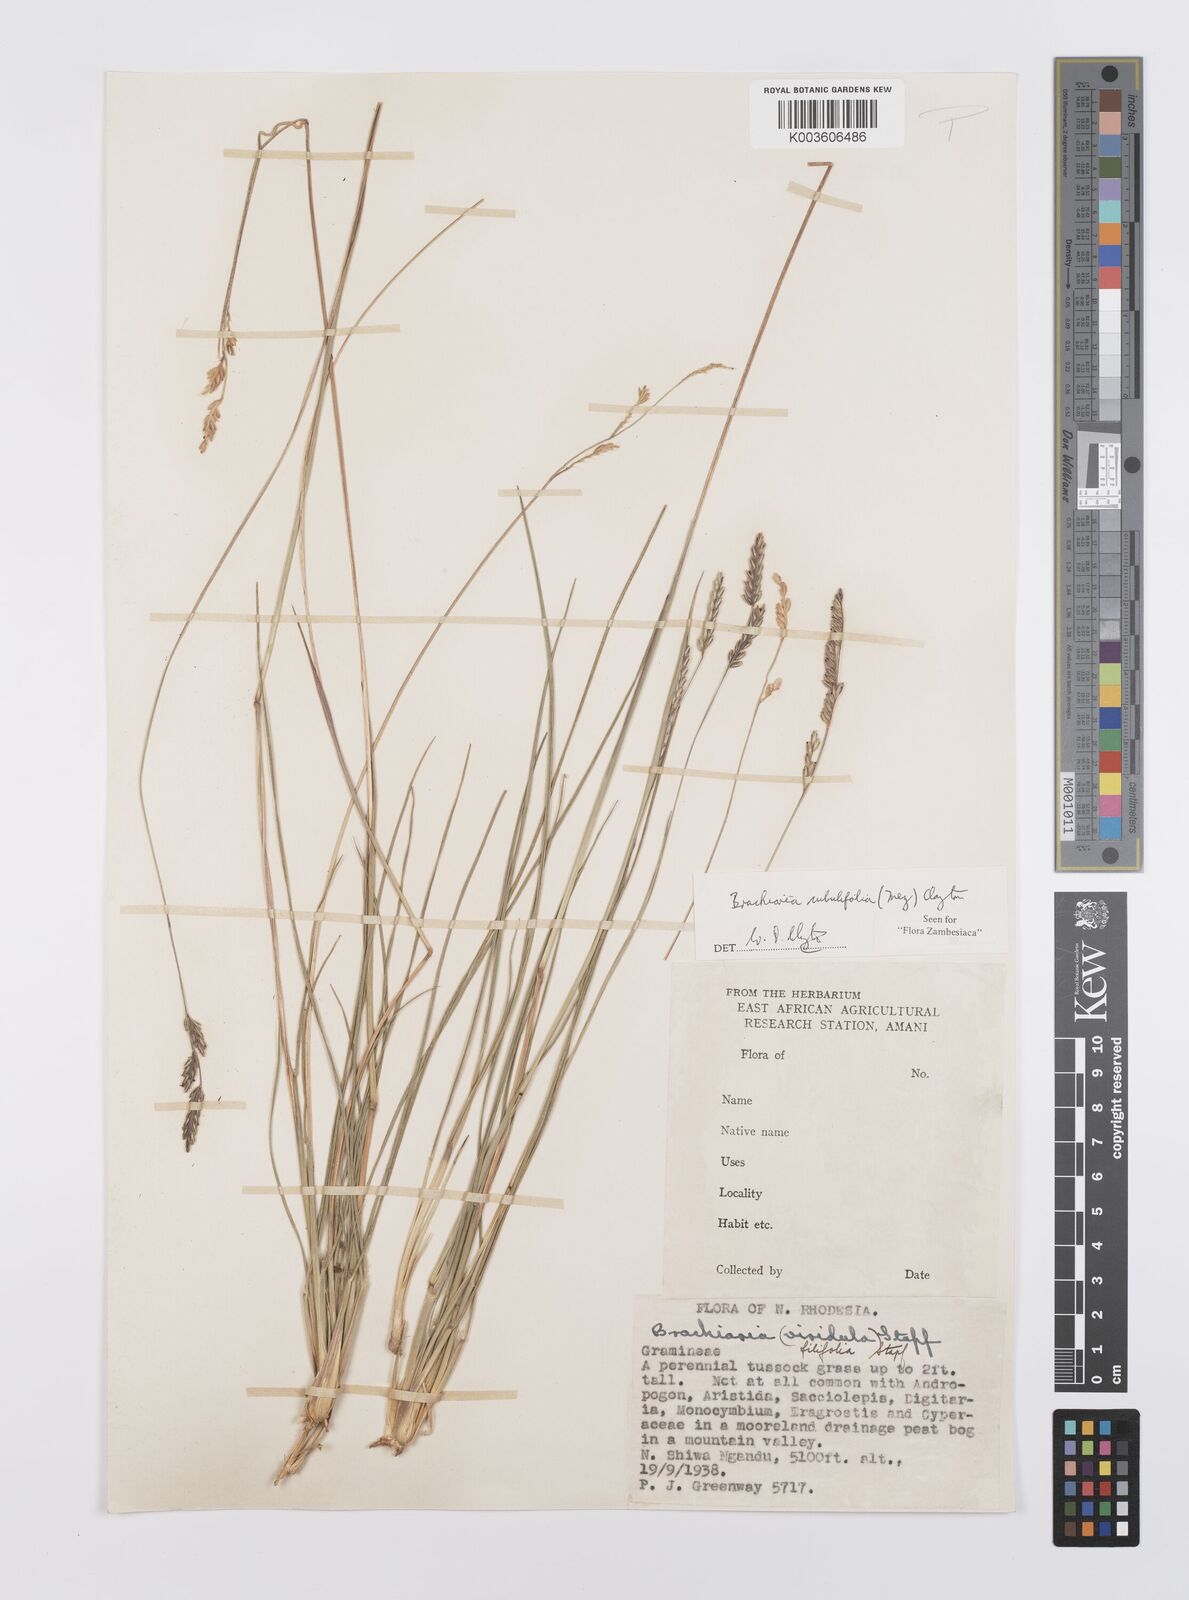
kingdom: Plantae
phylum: Tracheophyta
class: Liliopsida
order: Poales
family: Poaceae
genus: Urochloa
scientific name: Urochloa subulifolia
